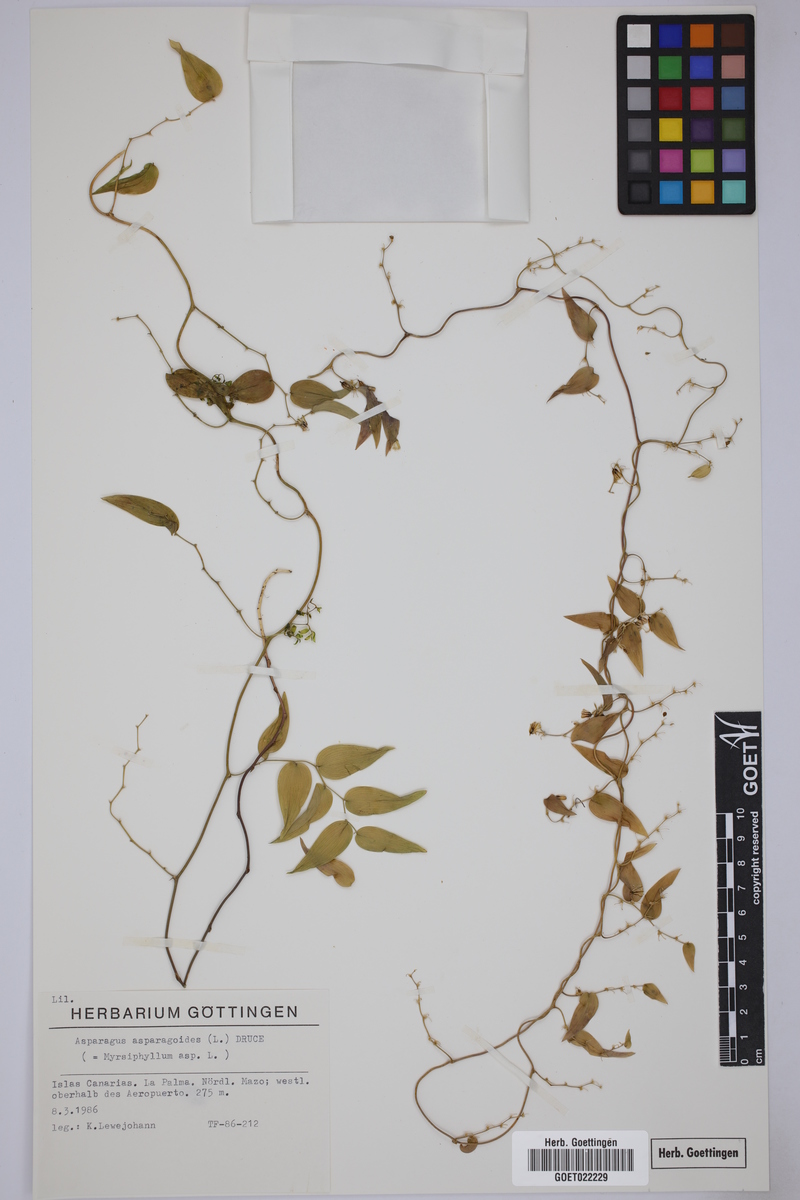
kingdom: Plantae
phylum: Tracheophyta
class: Liliopsida
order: Asparagales
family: Asparagaceae
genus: Asparagus
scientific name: Asparagus asparagoides
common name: African asparagus fern
